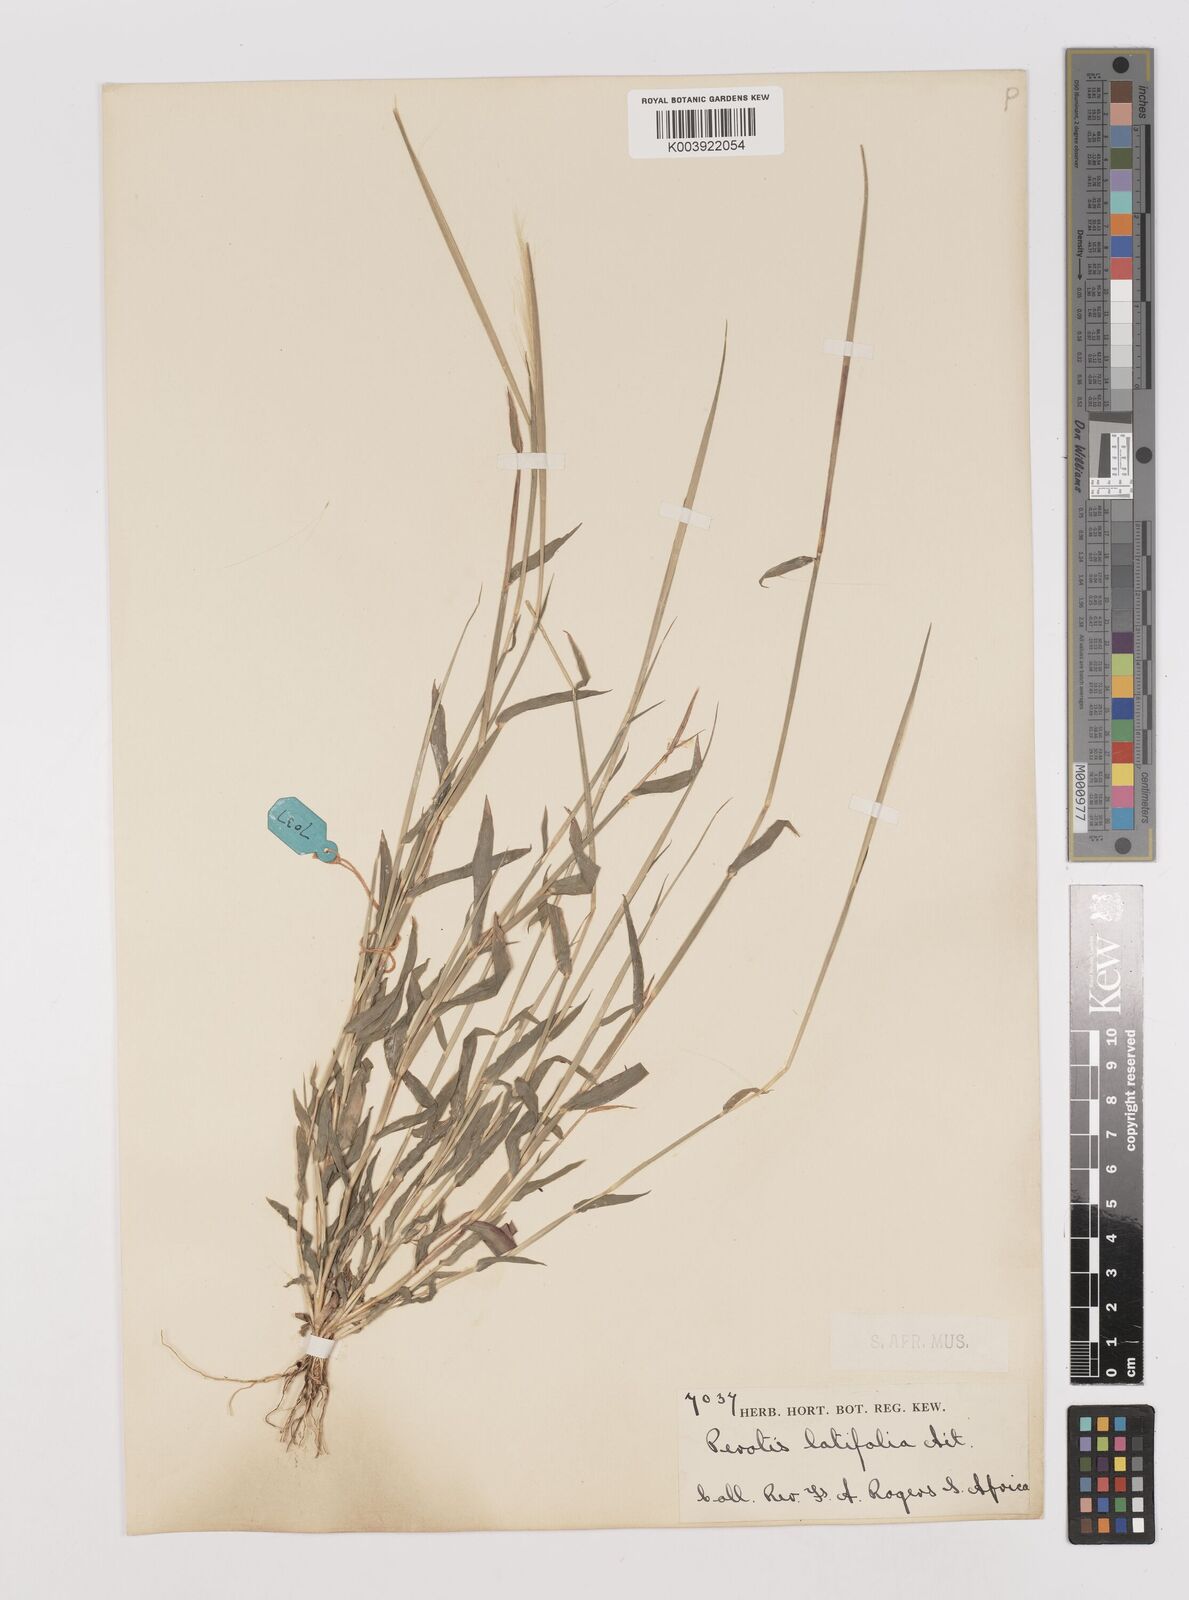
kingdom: Plantae
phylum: Tracheophyta
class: Liliopsida
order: Poales
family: Poaceae
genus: Perotis
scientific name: Perotis leptopus
